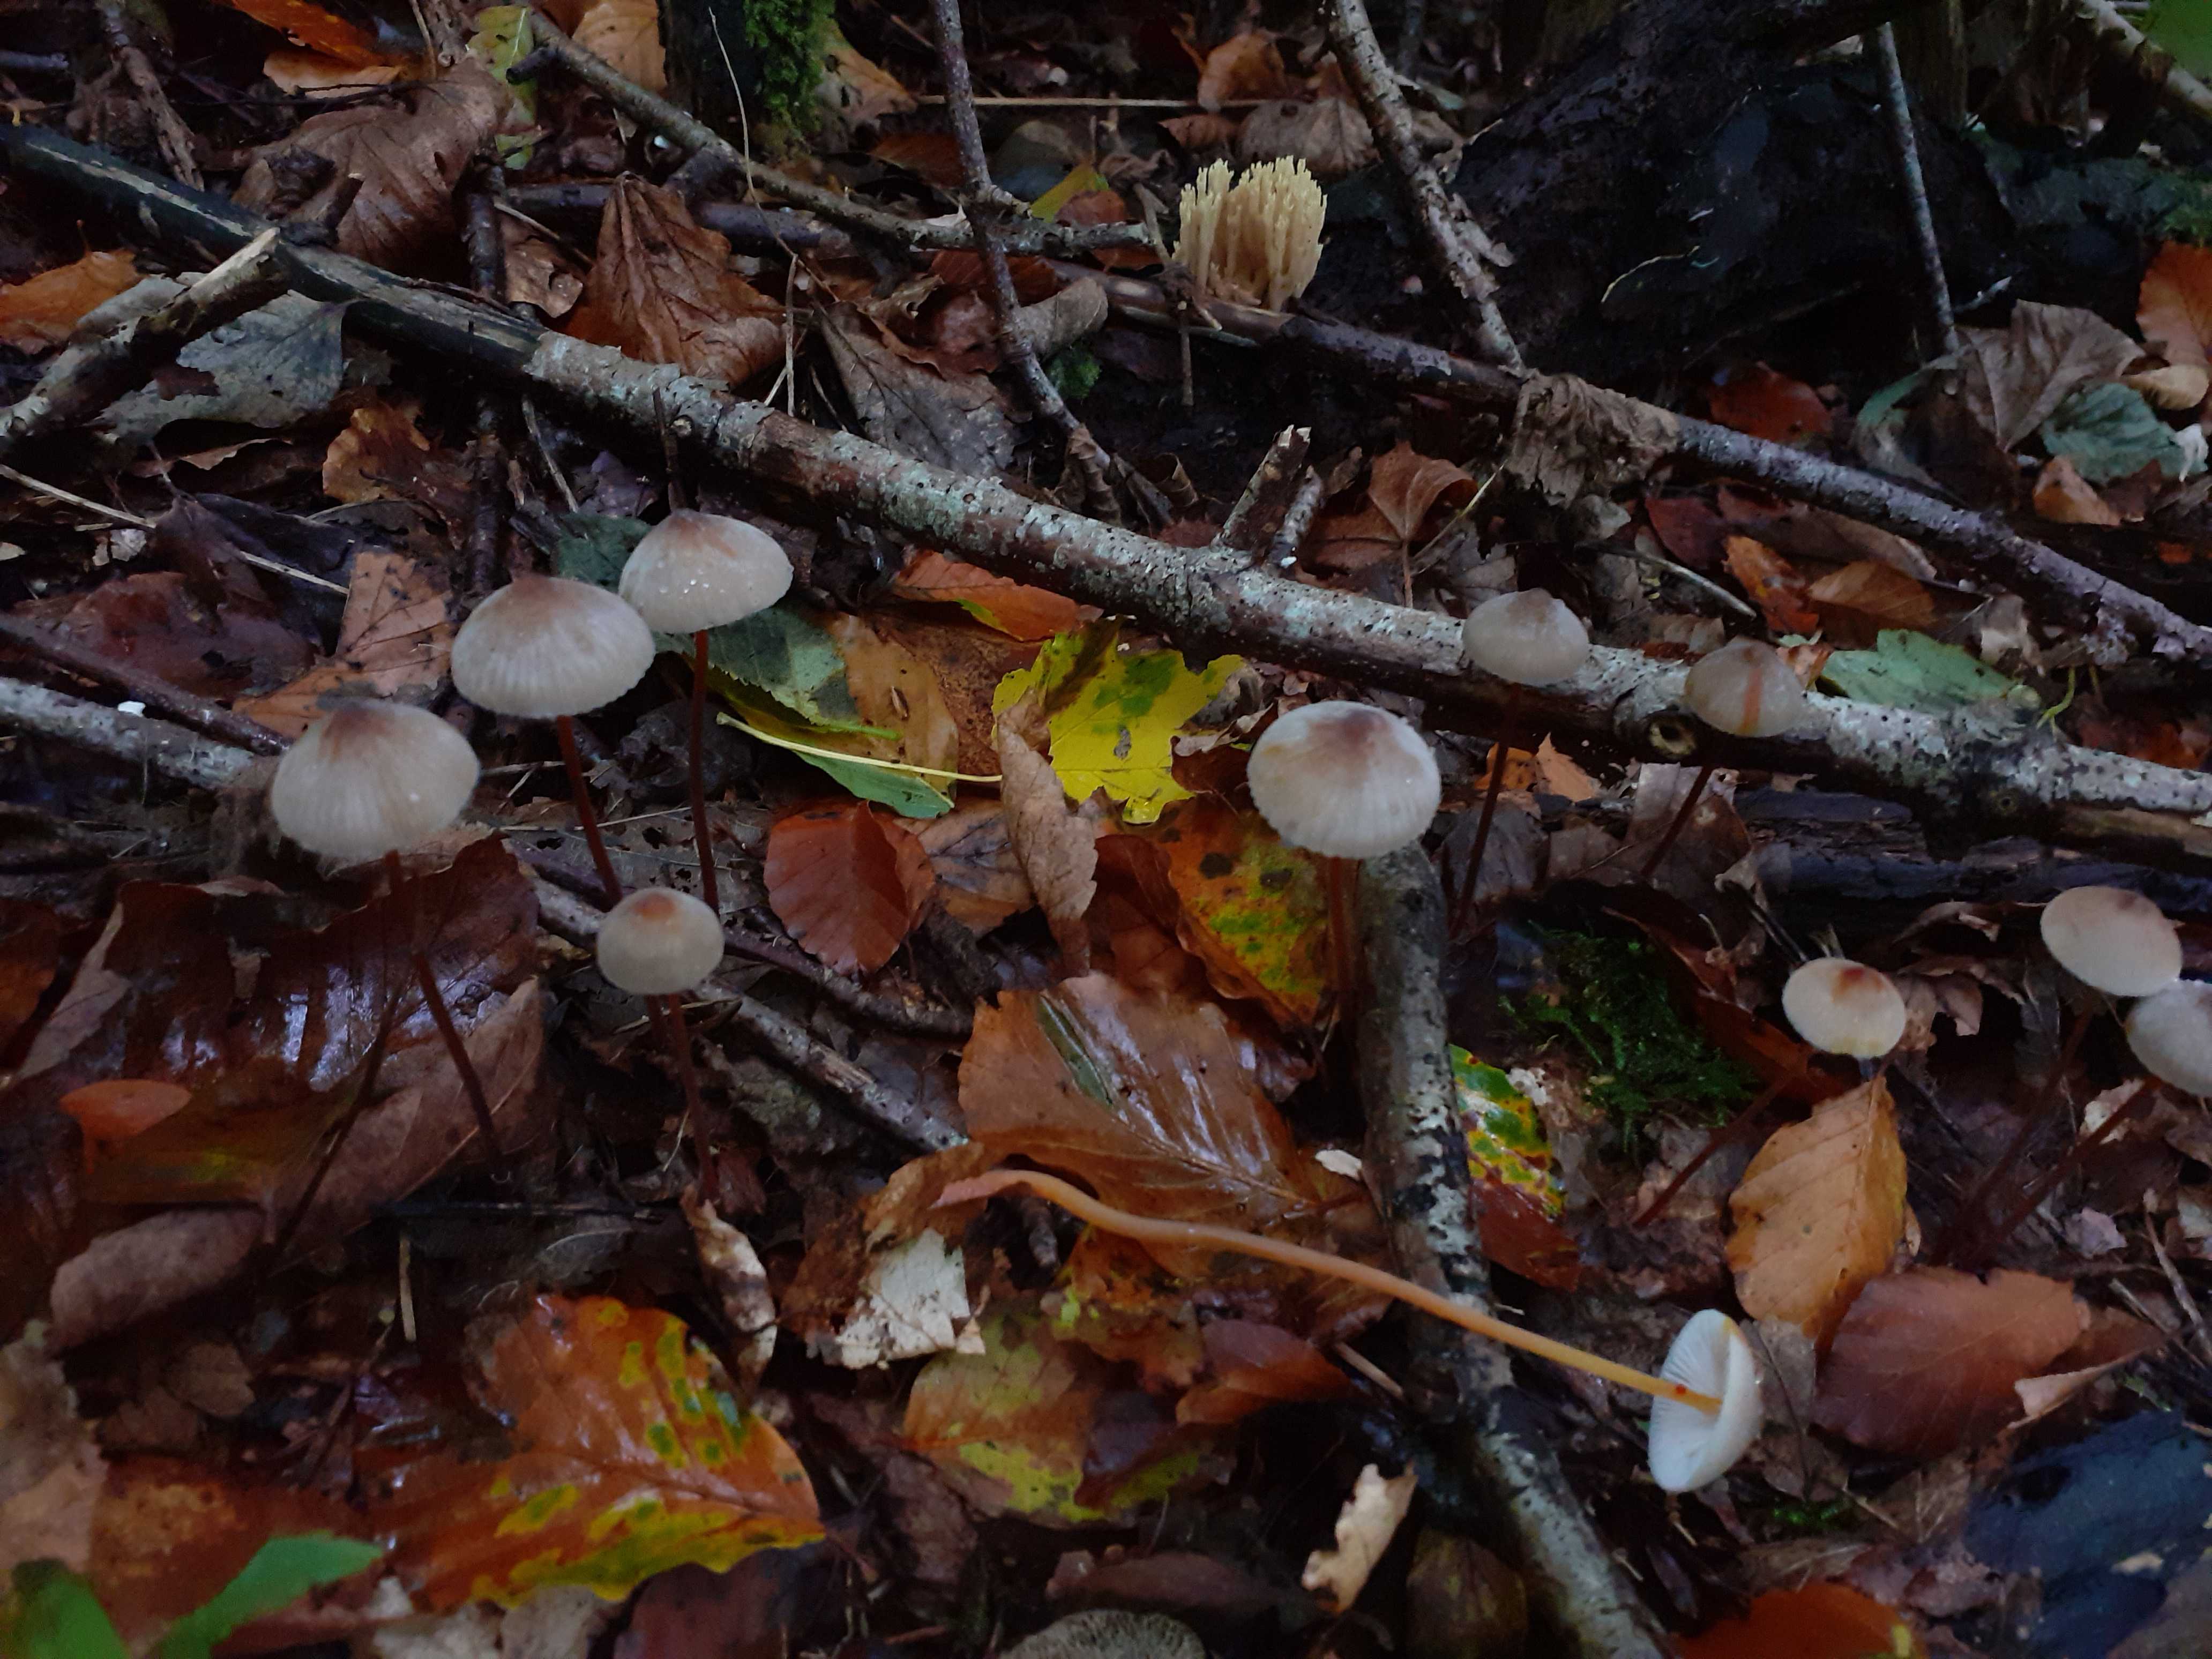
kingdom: Fungi
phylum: Basidiomycota
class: Agaricomycetes
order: Agaricales
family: Mycenaceae
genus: Mycena
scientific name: Mycena crocata
